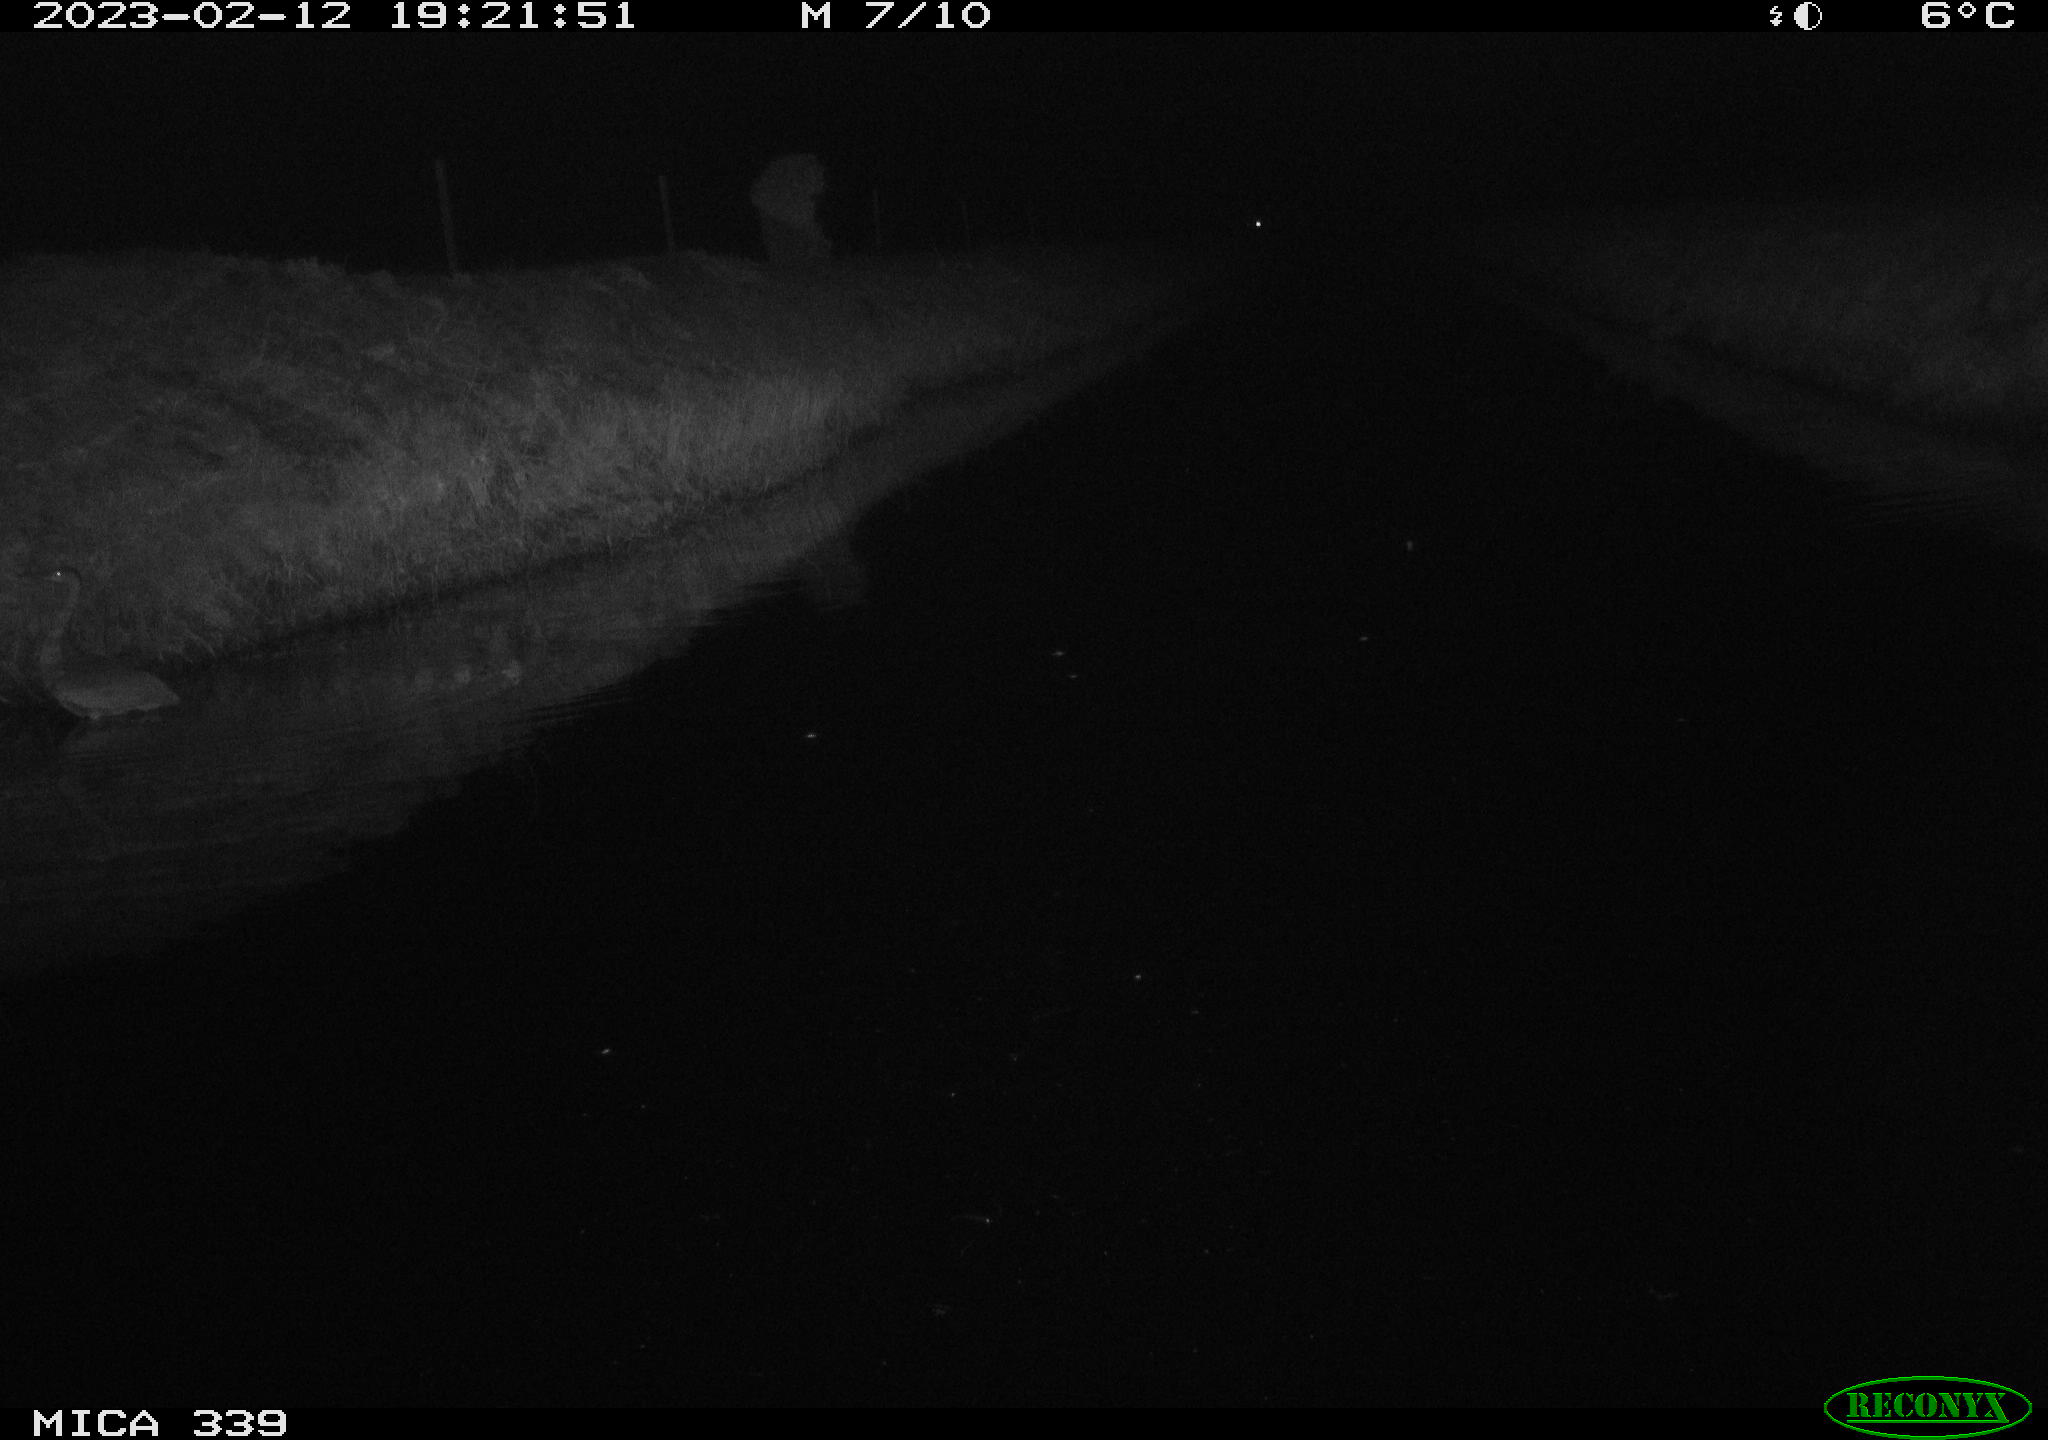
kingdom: Animalia
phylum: Chordata
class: Aves
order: Pelecaniformes
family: Ardeidae
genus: Ardea
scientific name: Ardea cinerea
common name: Grey heron
